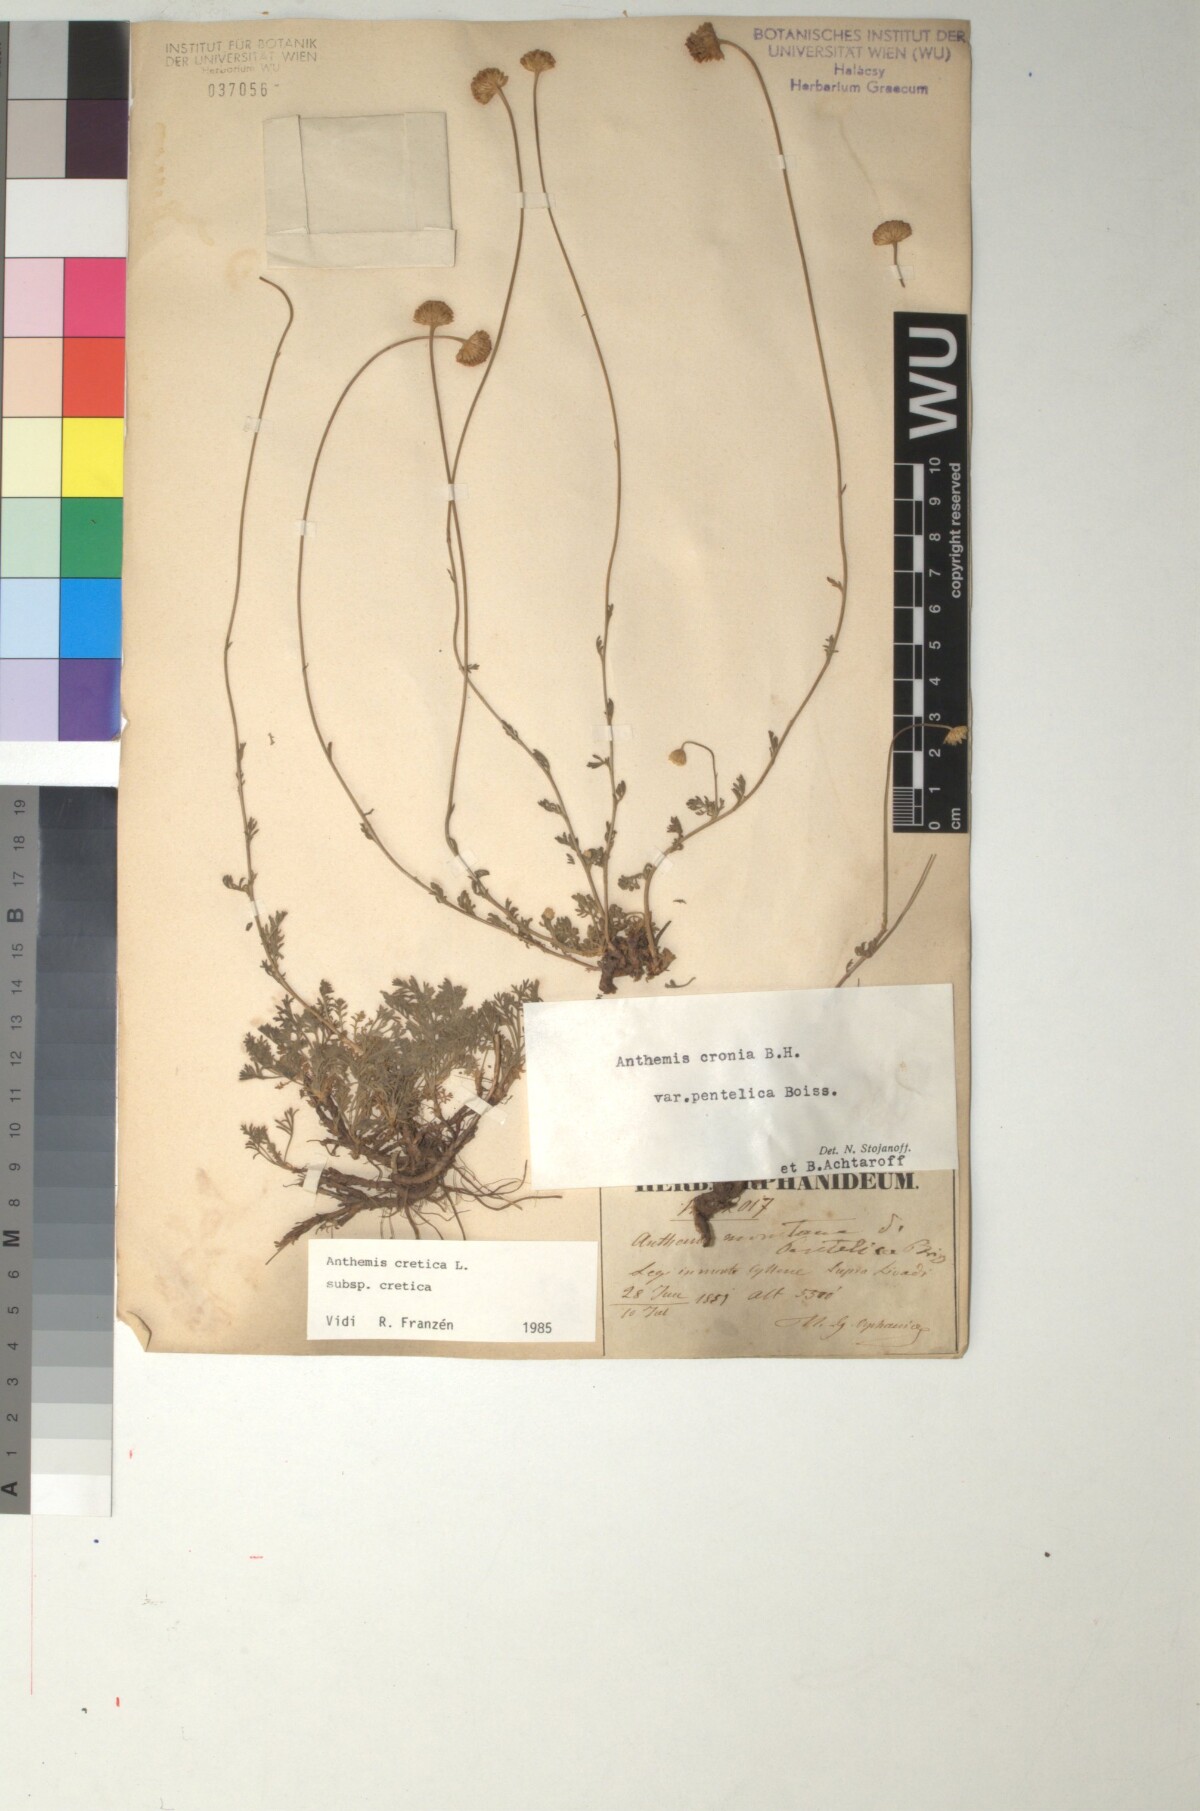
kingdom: Plantae
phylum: Tracheophyta
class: Magnoliopsida
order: Asterales
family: Asteraceae
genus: Anthemis
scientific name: Anthemis cretica
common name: Mountain dog-daisy
